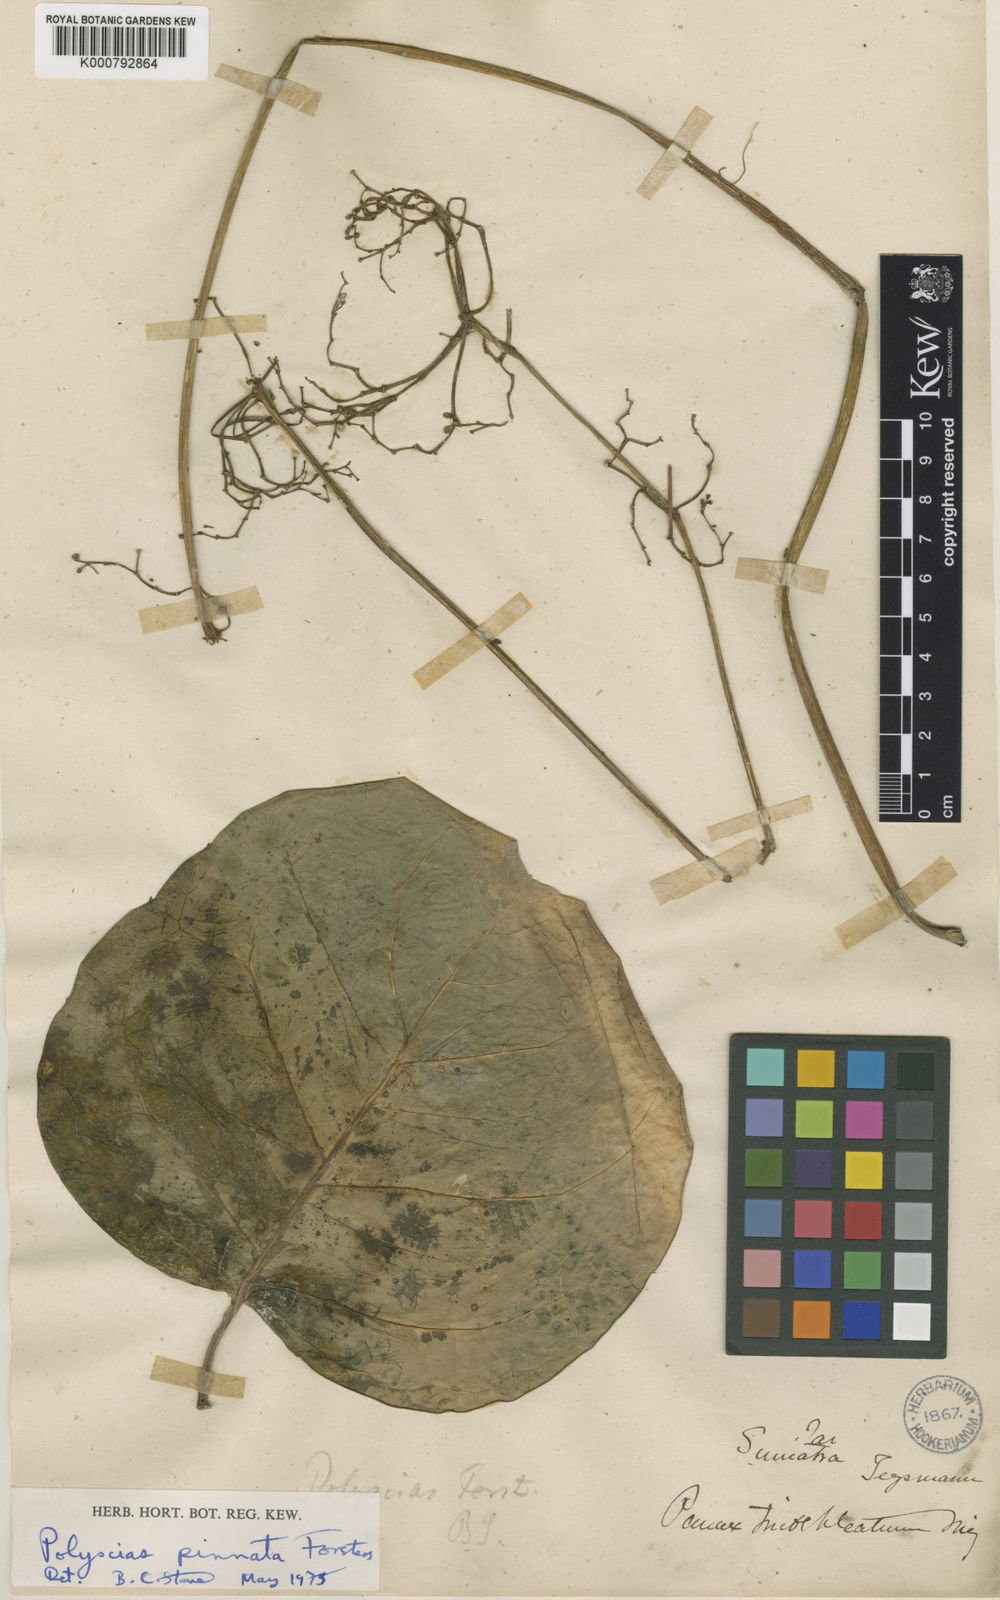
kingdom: Plantae
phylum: Tracheophyta
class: Magnoliopsida
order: Apiales
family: Araliaceae
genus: Polyscias
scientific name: Polyscias scutellaria
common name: Dinnerplate-aralia
